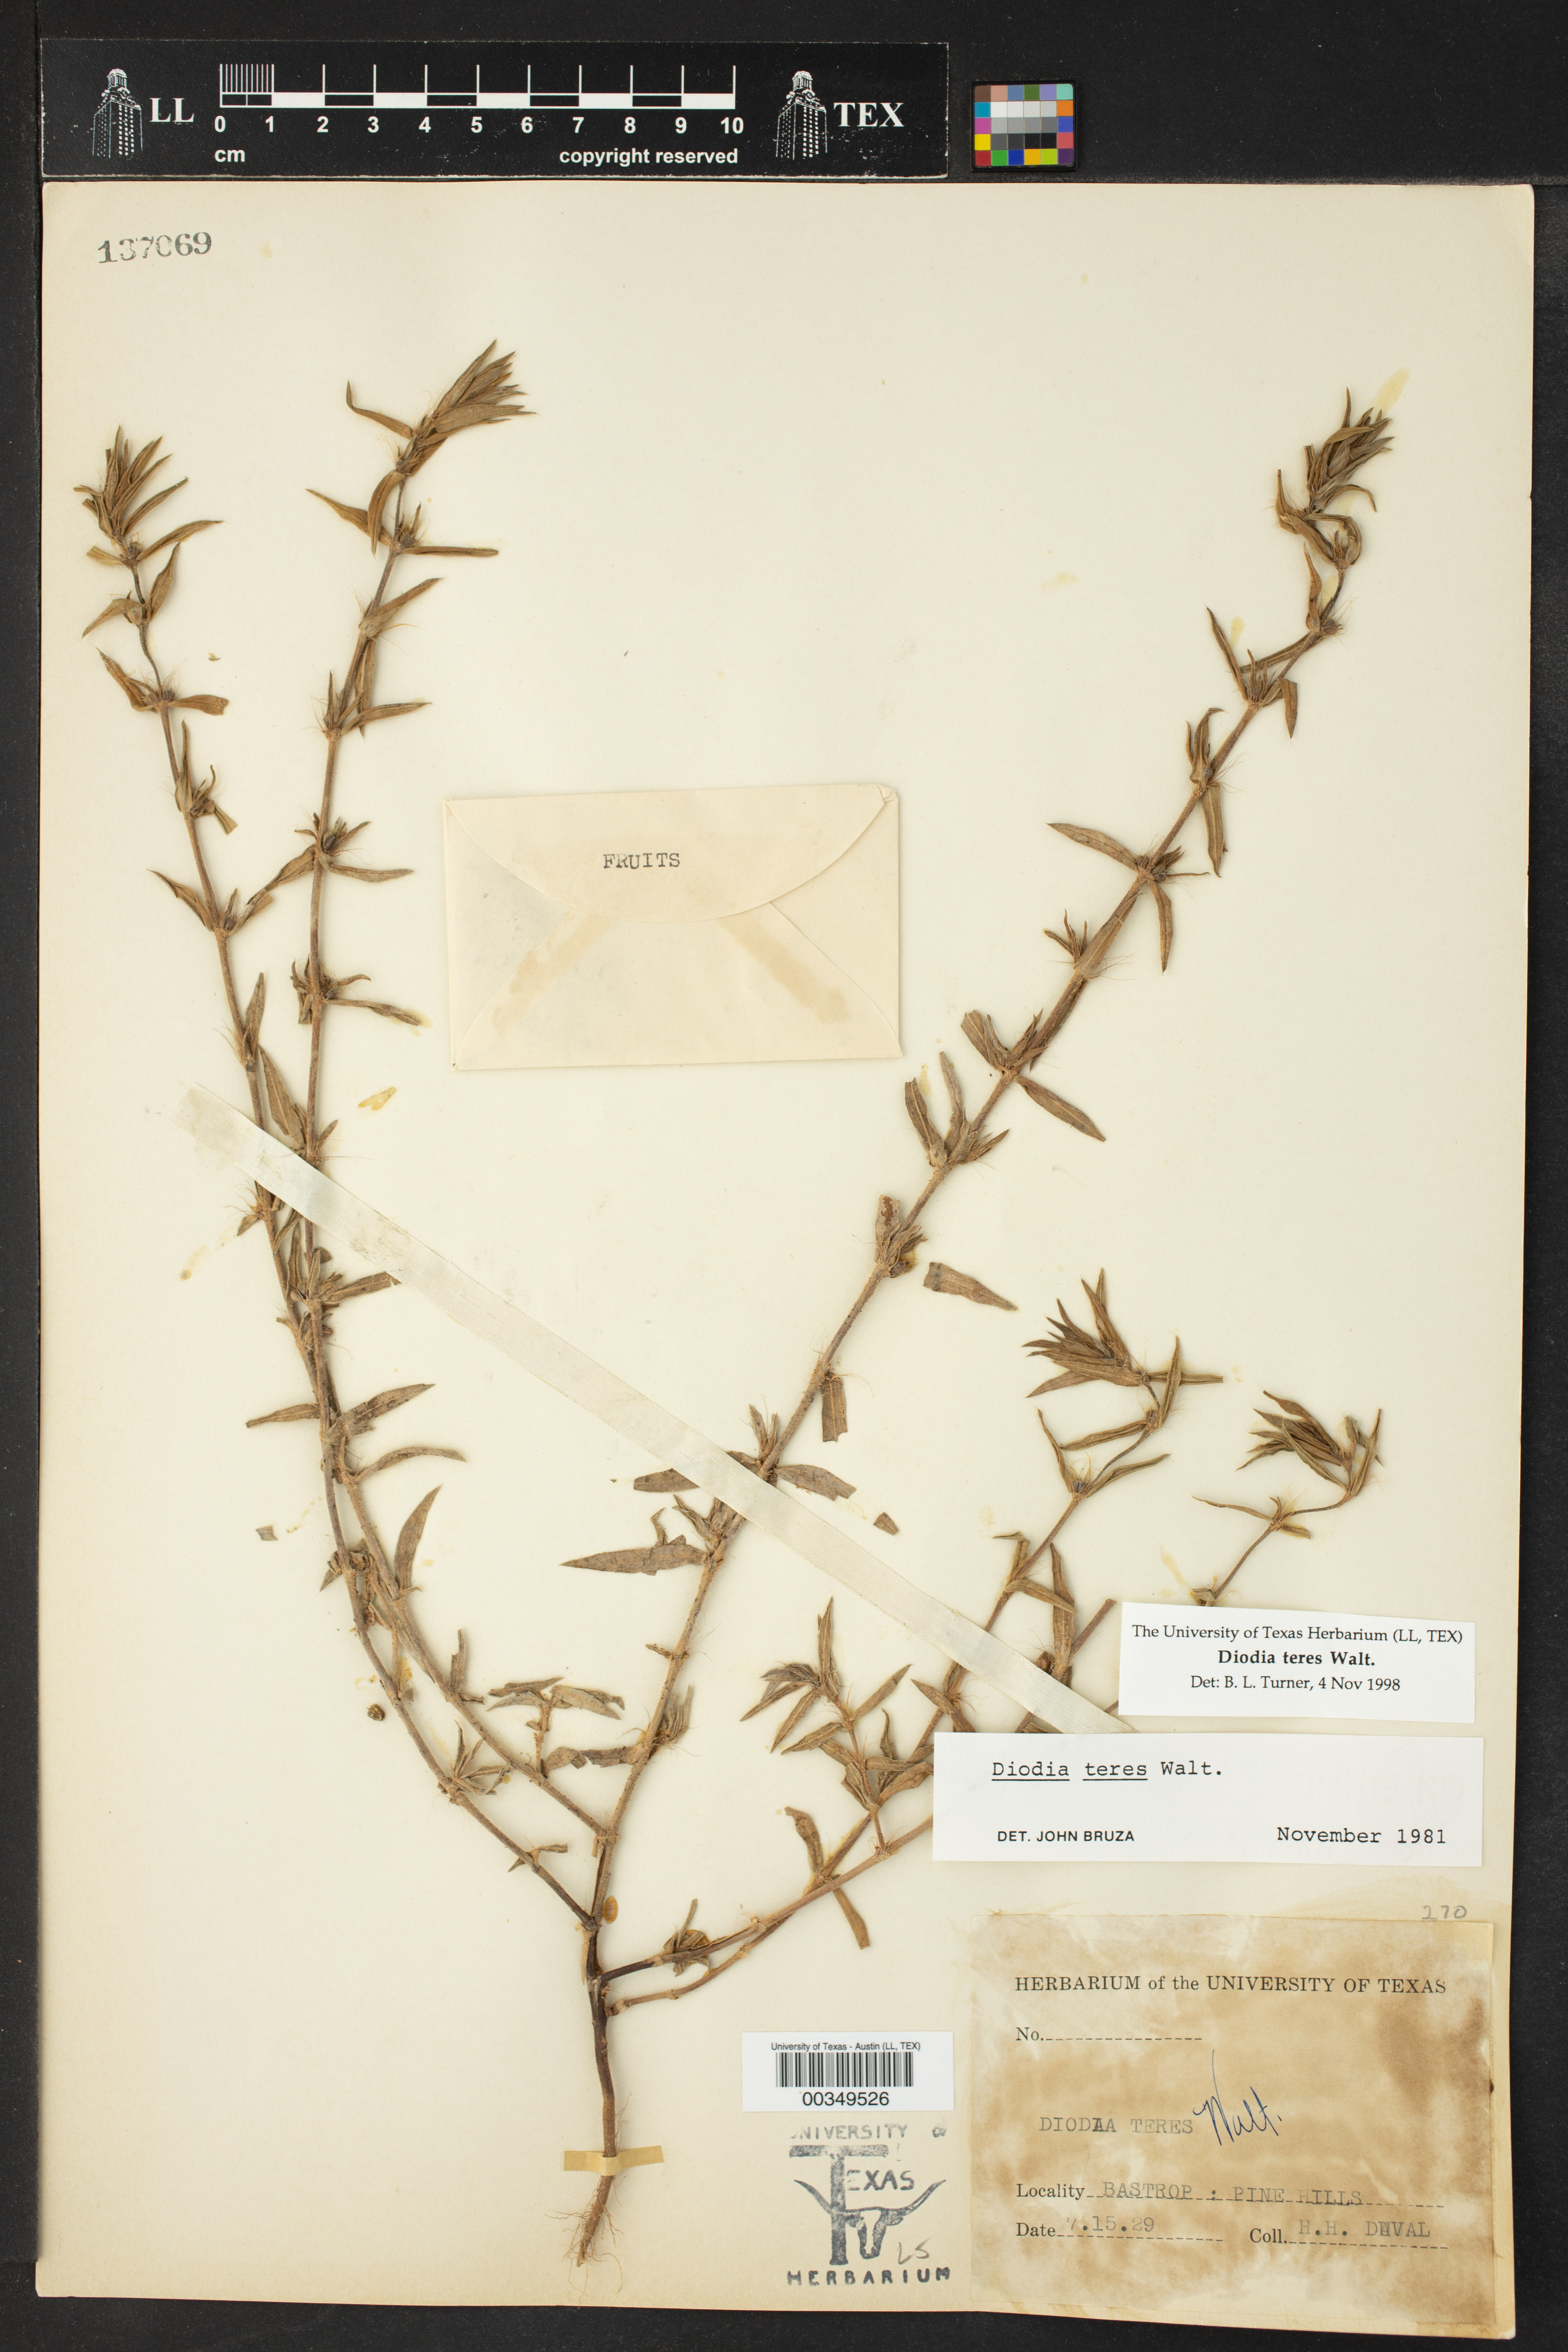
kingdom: Plantae
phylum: Tracheophyta
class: Magnoliopsida
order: Gentianales
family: Rubiaceae
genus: Hexasepalum
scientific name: Hexasepalum teres
